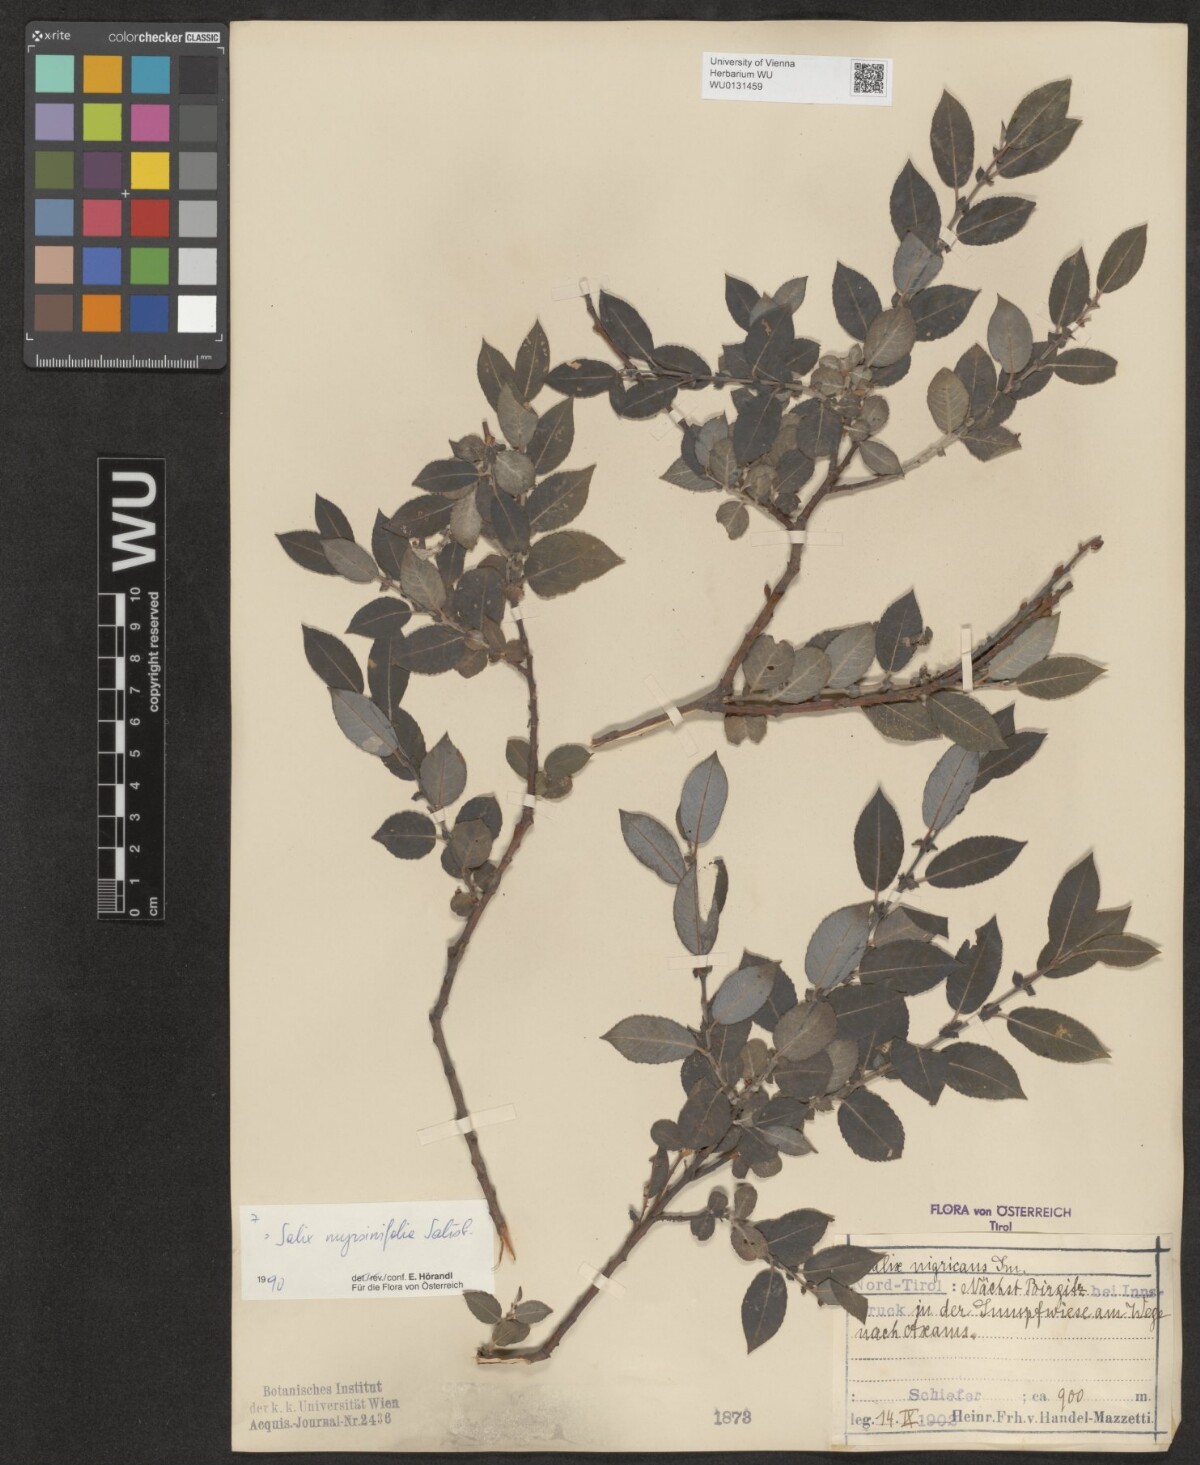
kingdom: Plantae
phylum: Tracheophyta
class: Magnoliopsida
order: Malpighiales
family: Salicaceae
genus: Salix
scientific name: Salix myrsinifolia
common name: Dark-leaved willow
